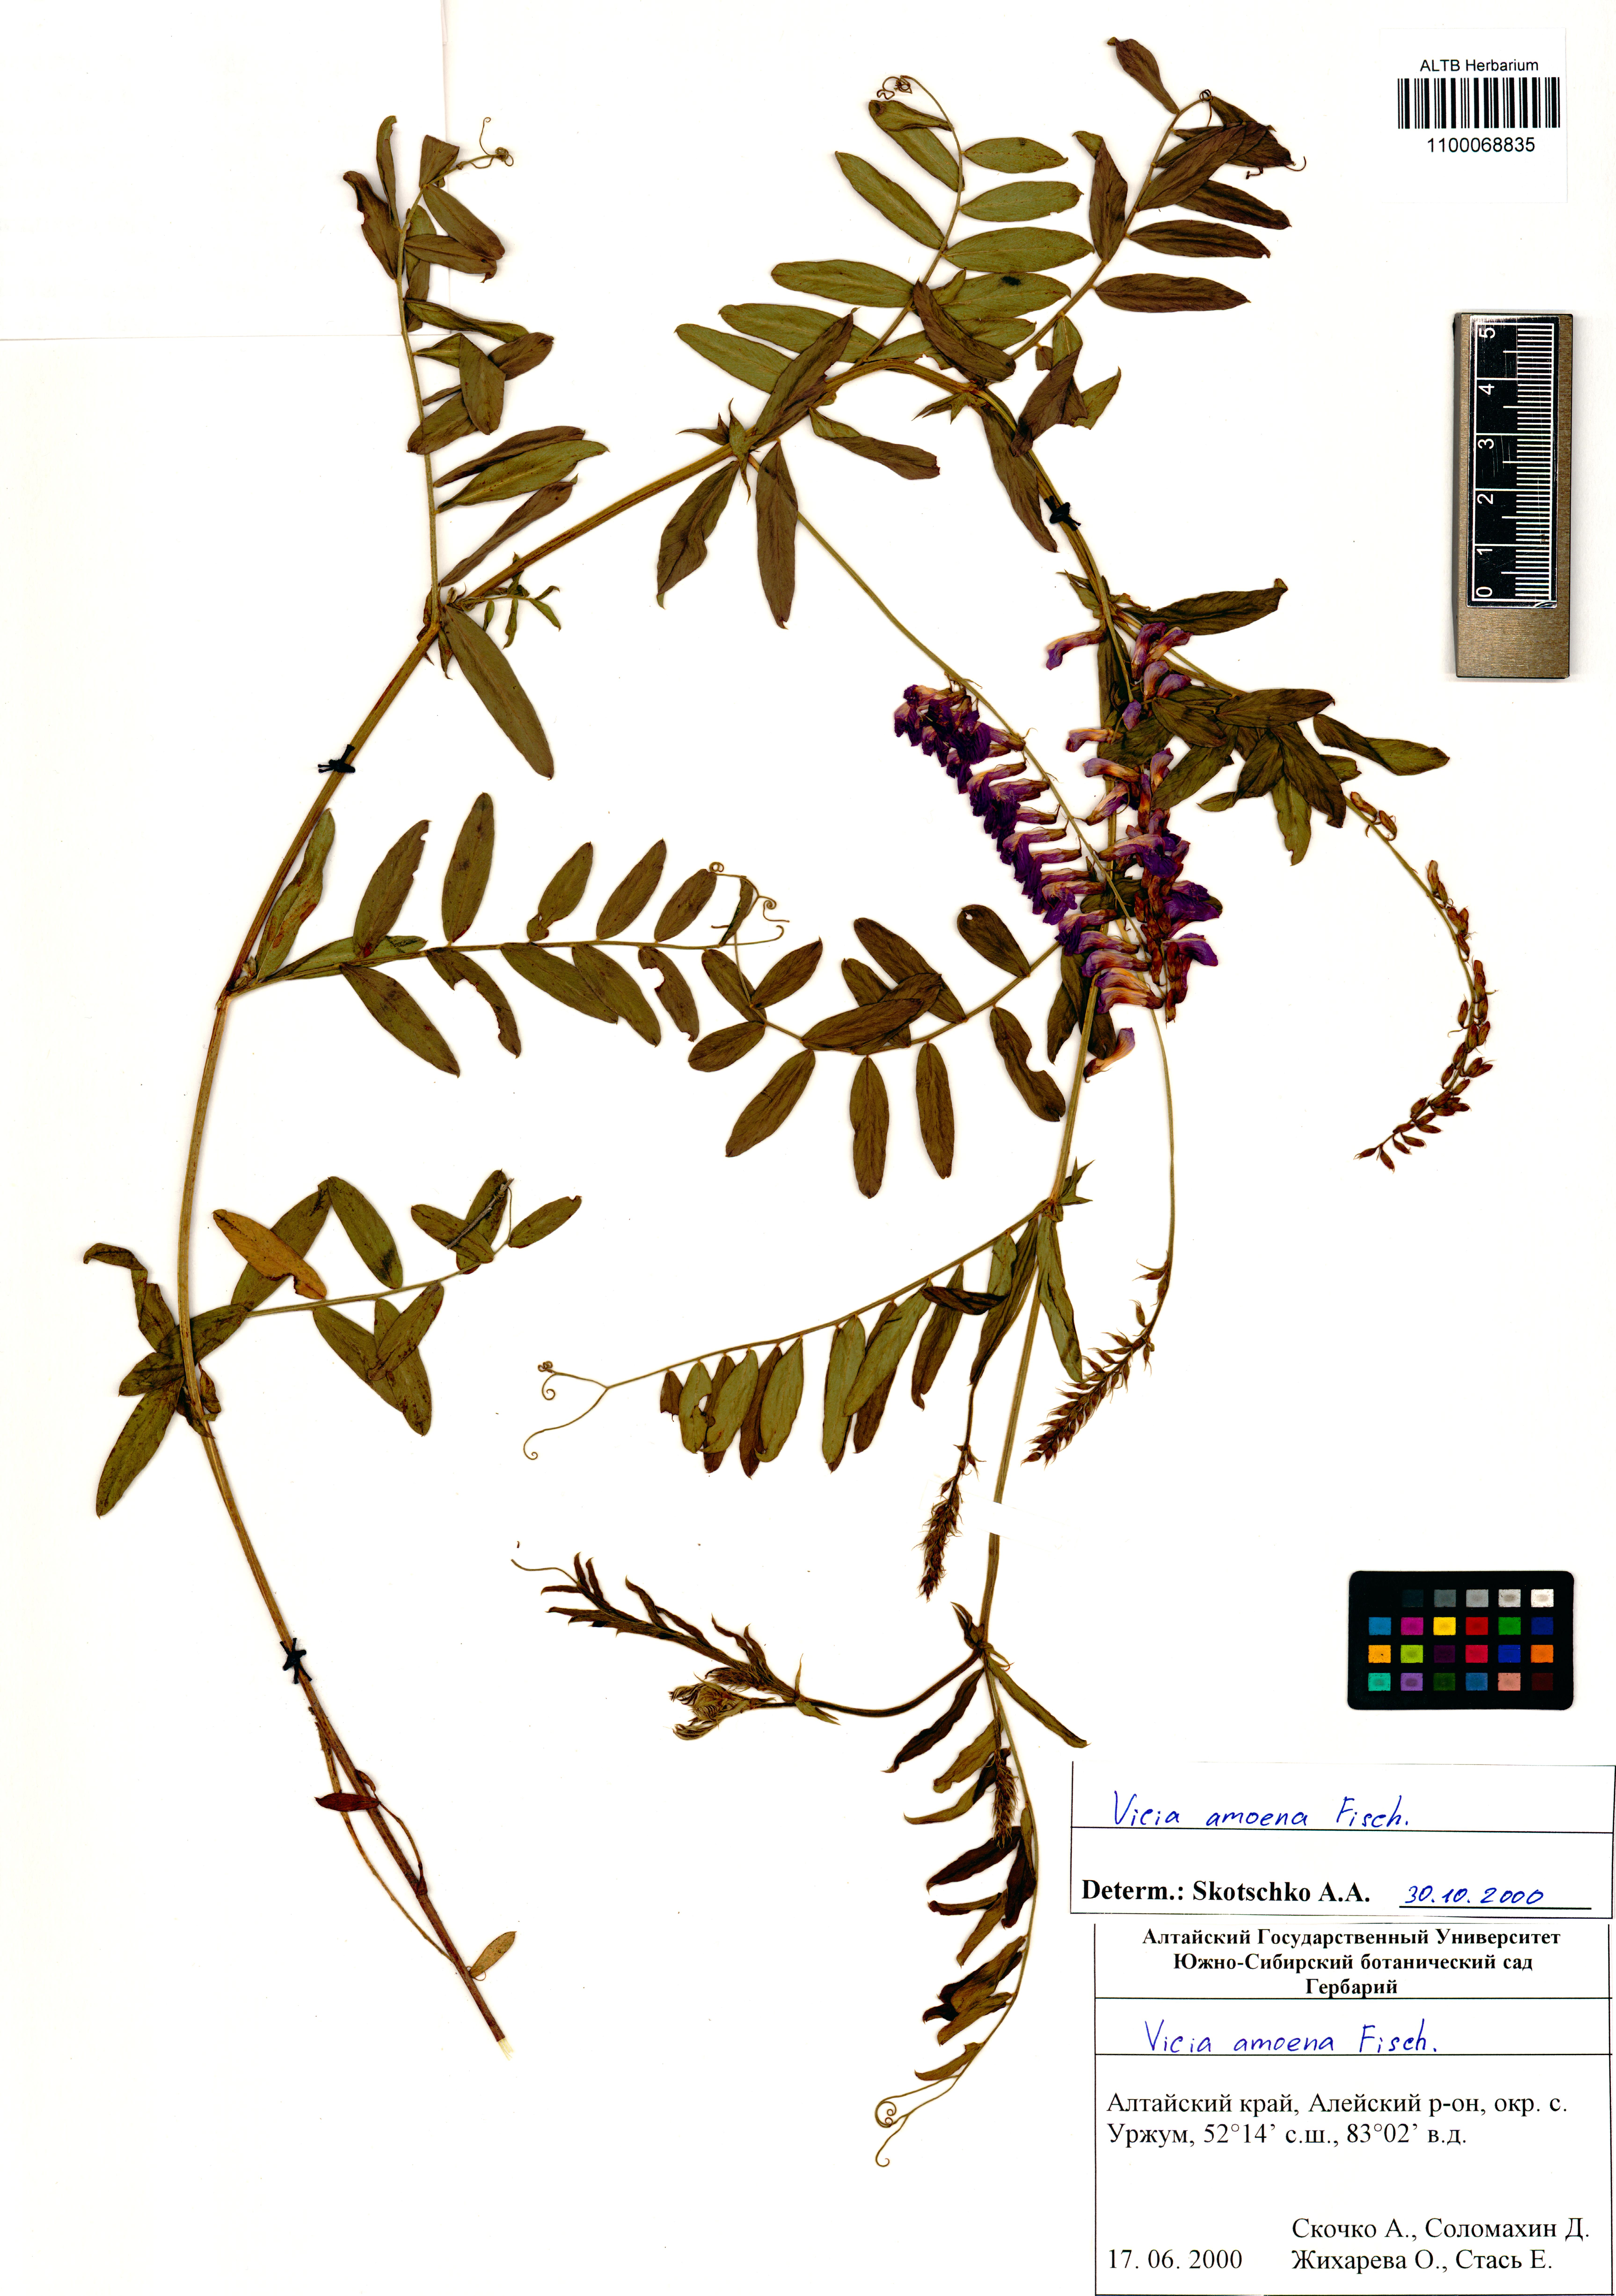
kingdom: Plantae
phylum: Tracheophyta
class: Magnoliopsida
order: Fabales
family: Fabaceae
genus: Vicia
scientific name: Vicia amoena
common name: Cheder ebs
